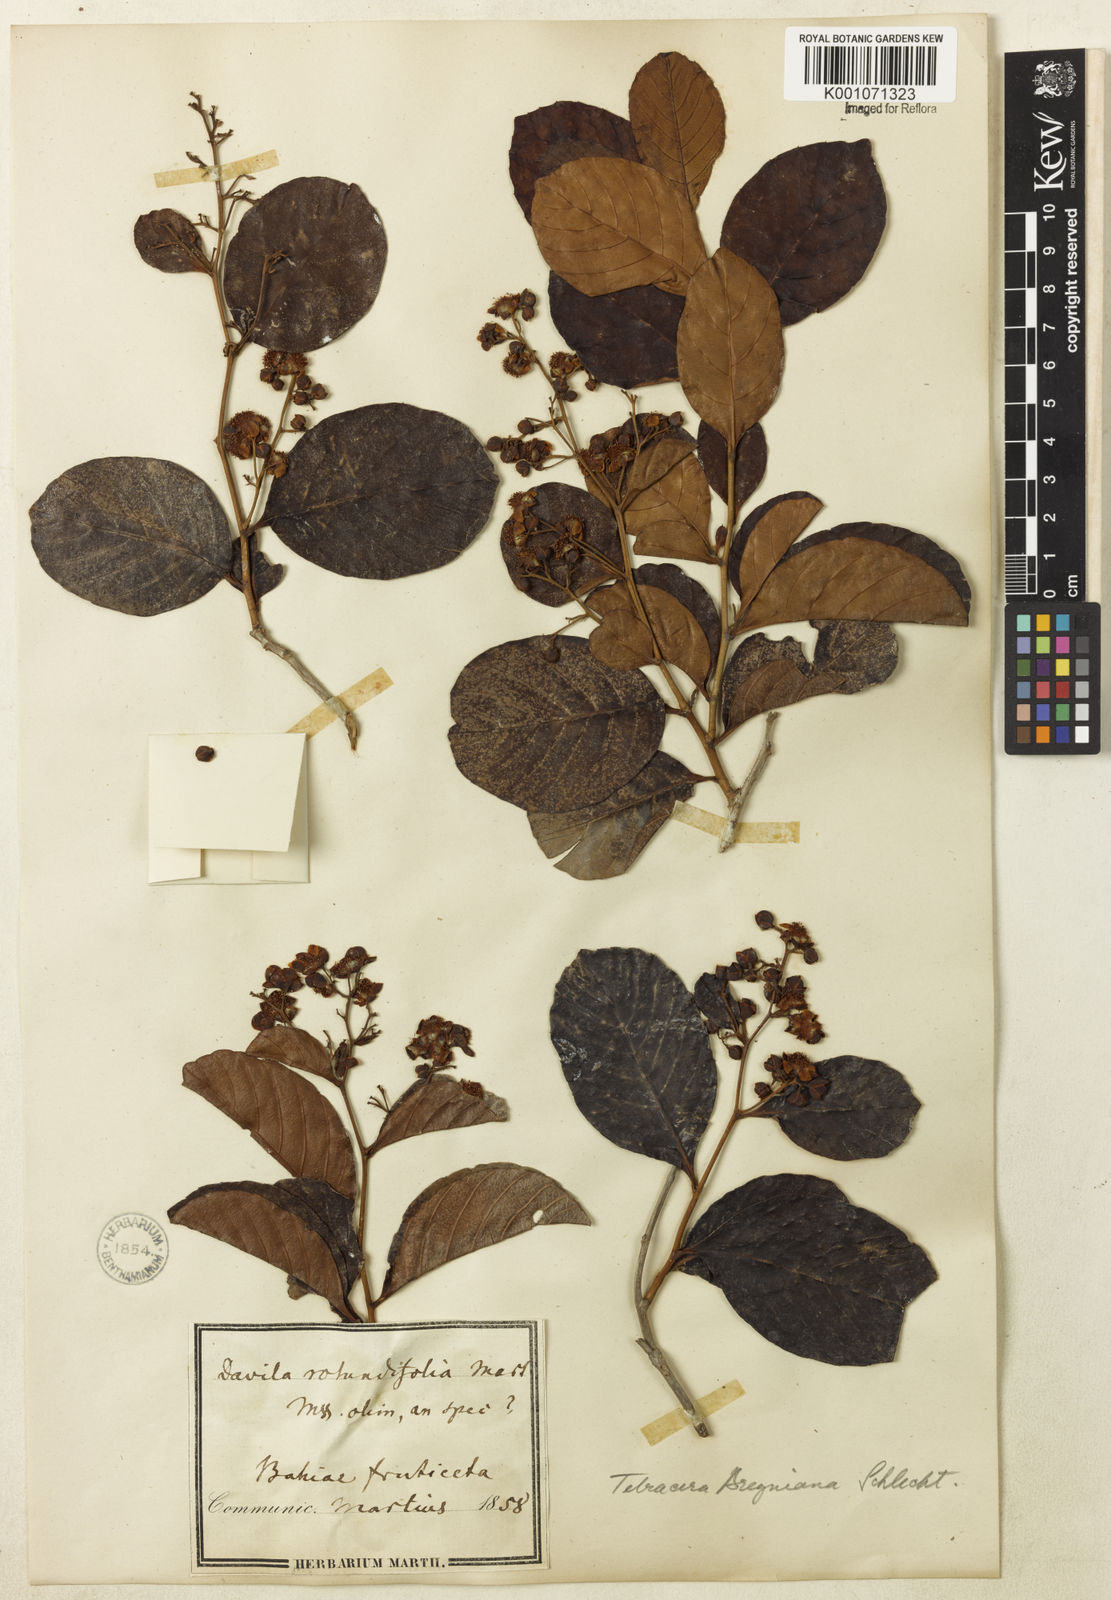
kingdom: Plantae
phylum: Tracheophyta
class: Magnoliopsida
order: Dilleniales
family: Dilleniaceae
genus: Tetracera
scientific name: Tetracera breyniana
